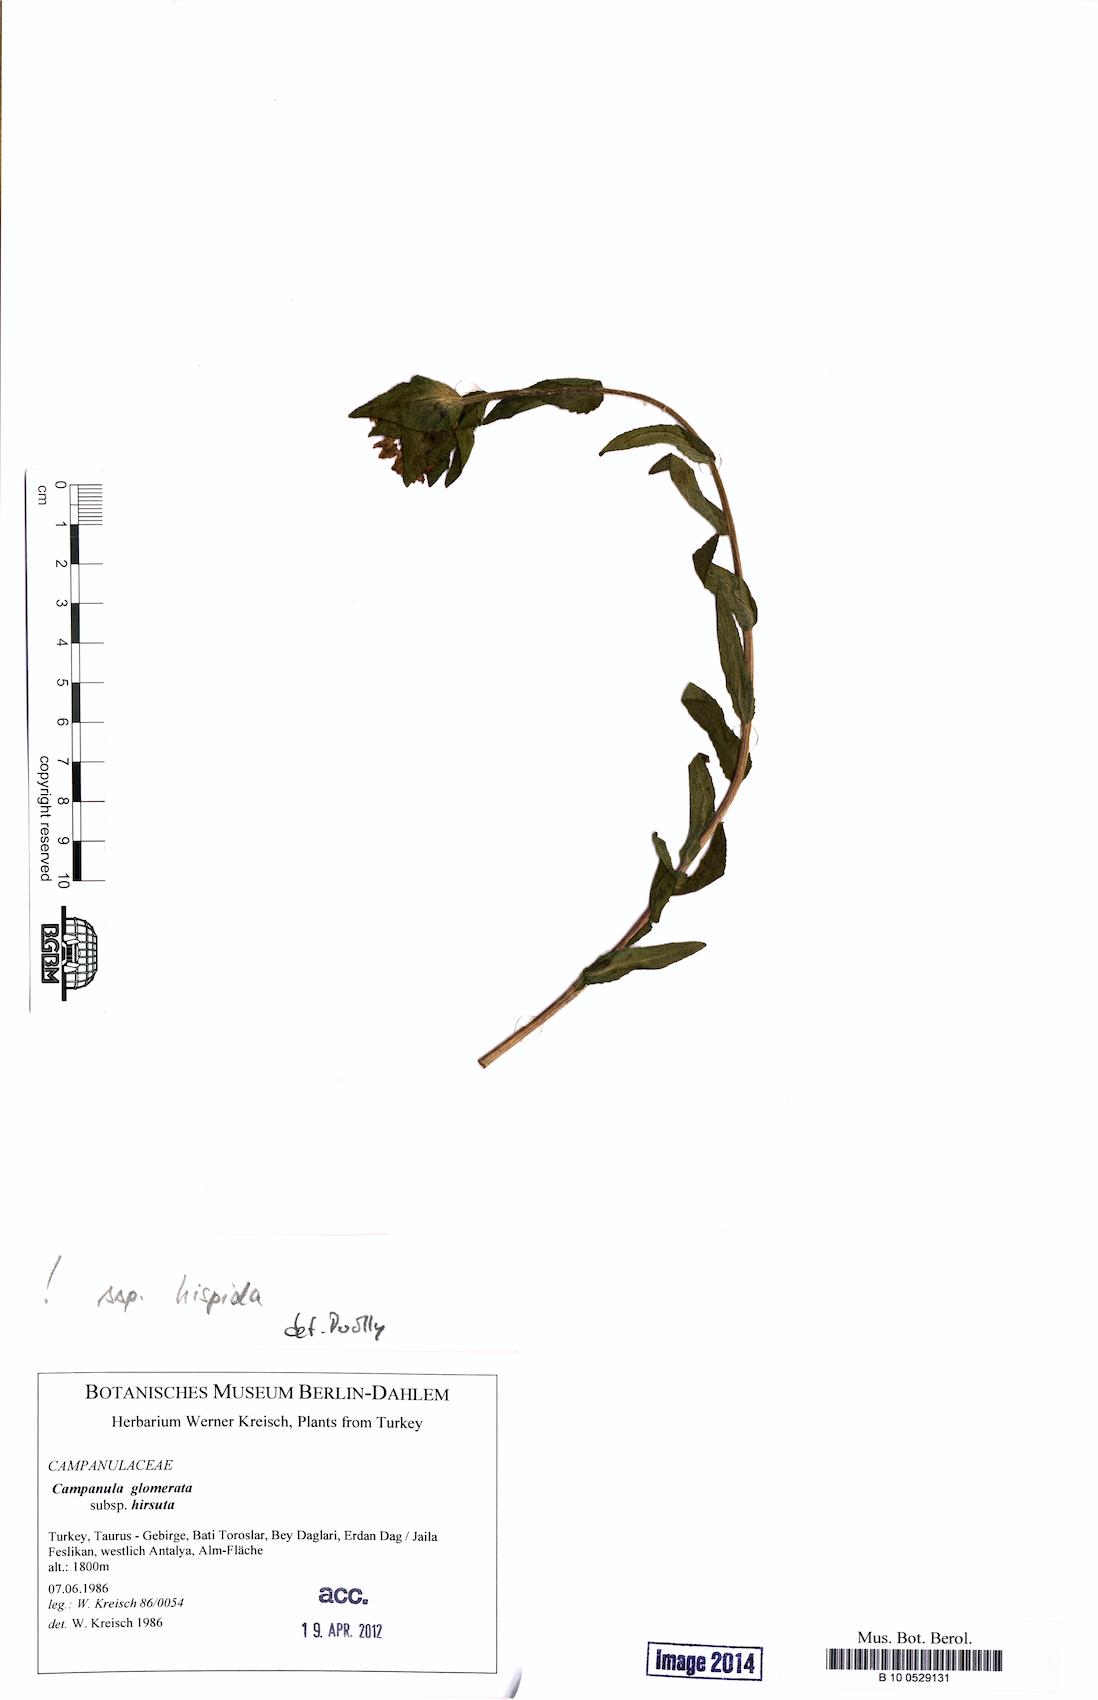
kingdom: Plantae
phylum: Tracheophyta
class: Magnoliopsida
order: Asterales
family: Campanulaceae
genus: Campanula
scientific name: Campanula glomerata
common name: Clustered bellflower
